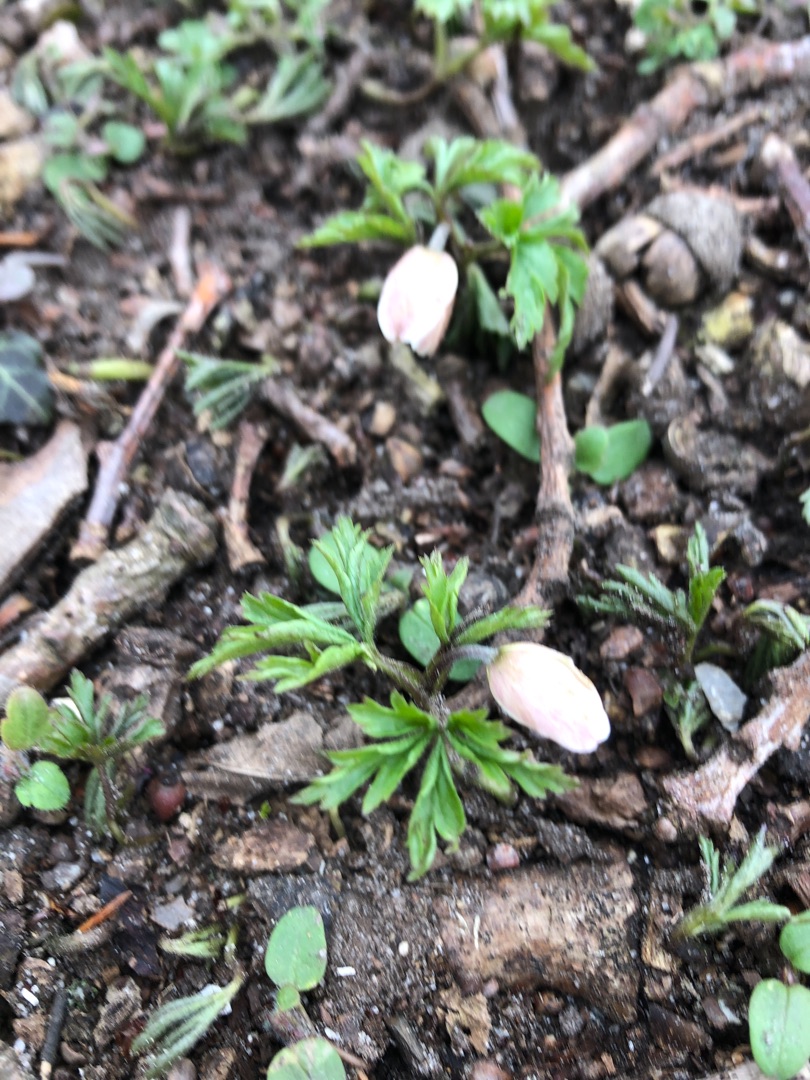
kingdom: Plantae
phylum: Tracheophyta
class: Magnoliopsida
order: Ranunculales
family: Ranunculaceae
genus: Anemone
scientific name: Anemone nemorosa
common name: Hvid anemone
